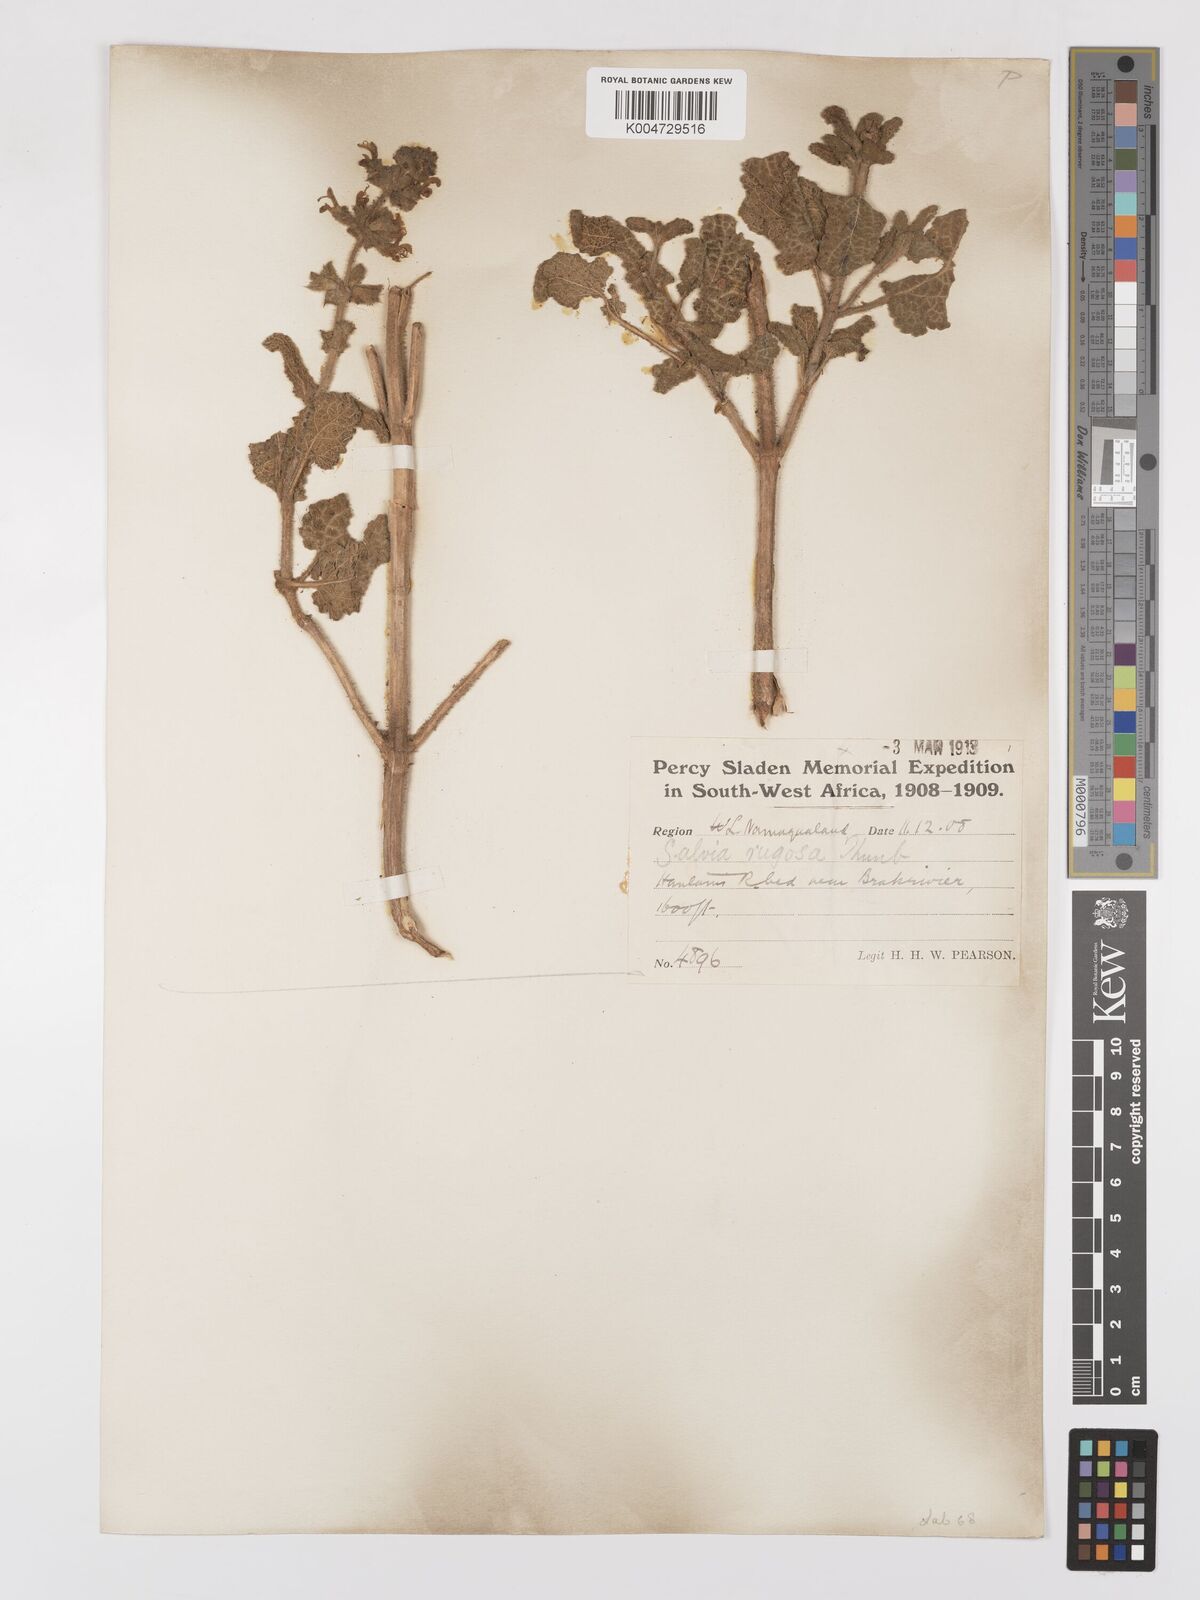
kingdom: Plantae
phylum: Tracheophyta
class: Magnoliopsida
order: Lamiales
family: Lamiaceae
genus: Salvia
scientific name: Salvia
